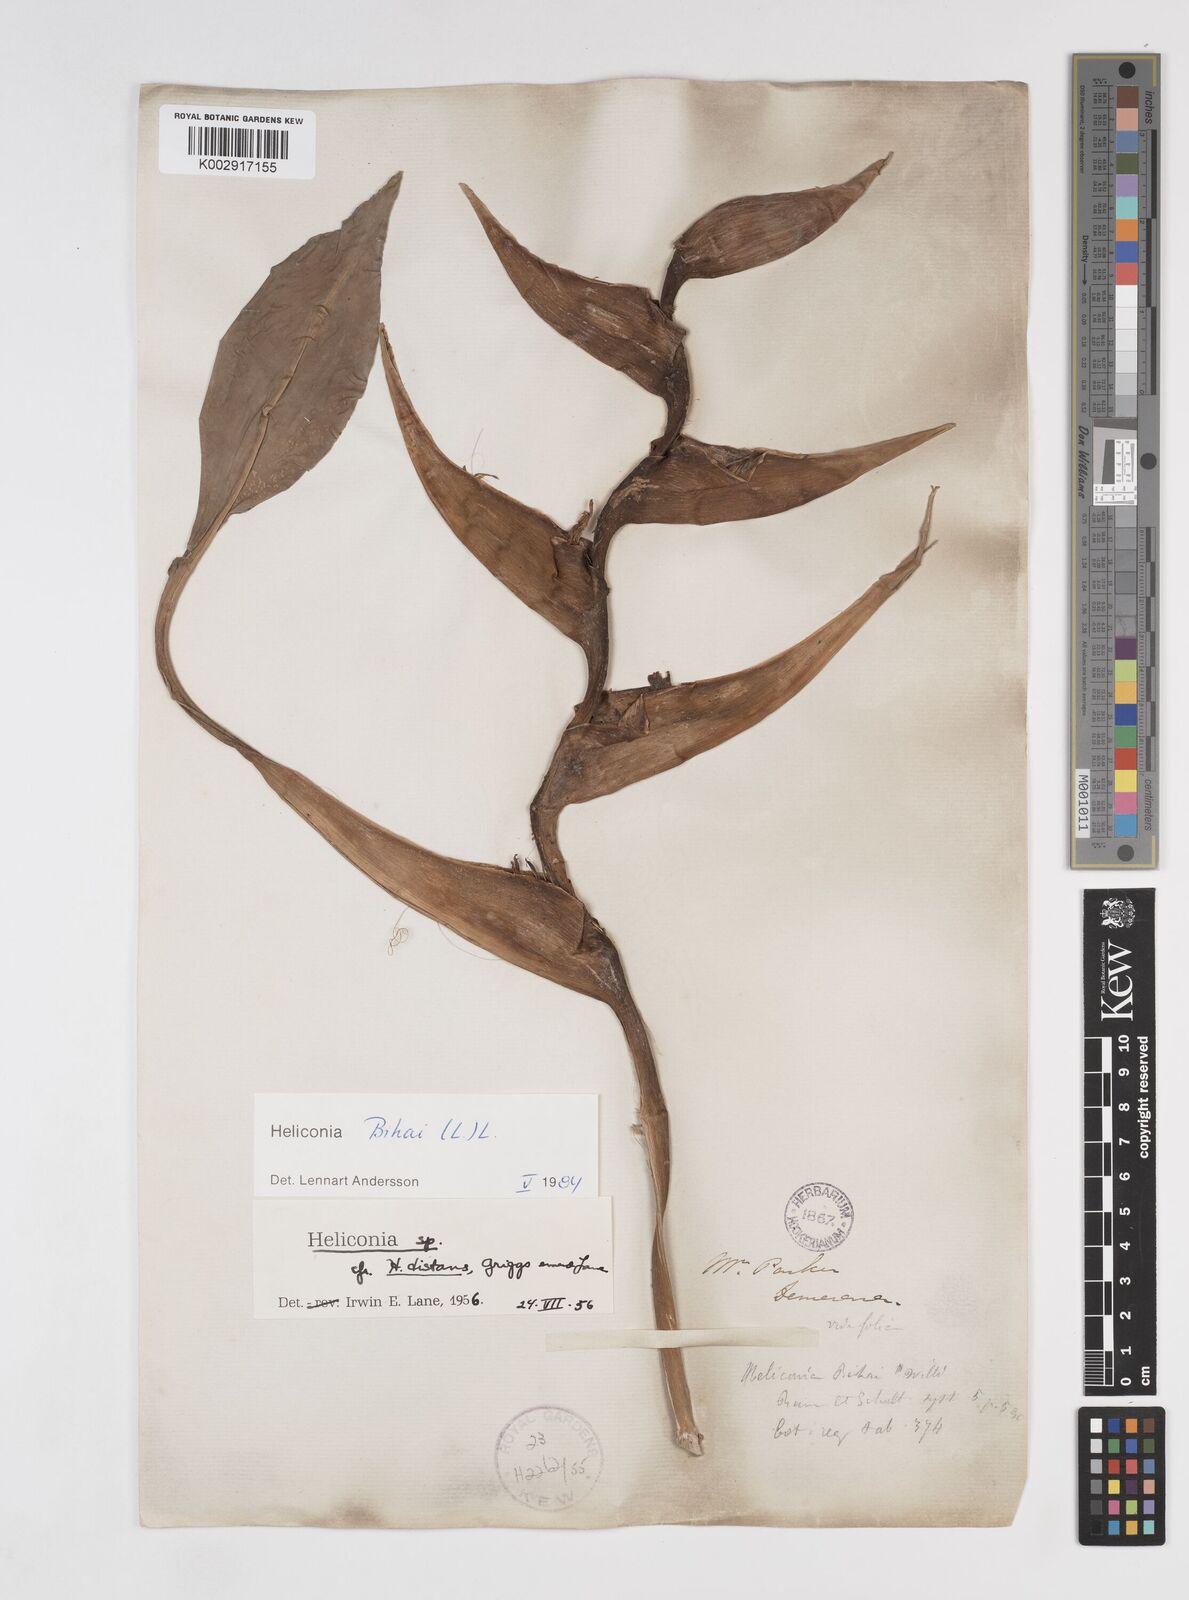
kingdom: Plantae
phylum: Tracheophyta
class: Liliopsida
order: Zingiberales
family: Heliconiaceae
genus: Heliconia
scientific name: Heliconia bihai
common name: Macaw flower
